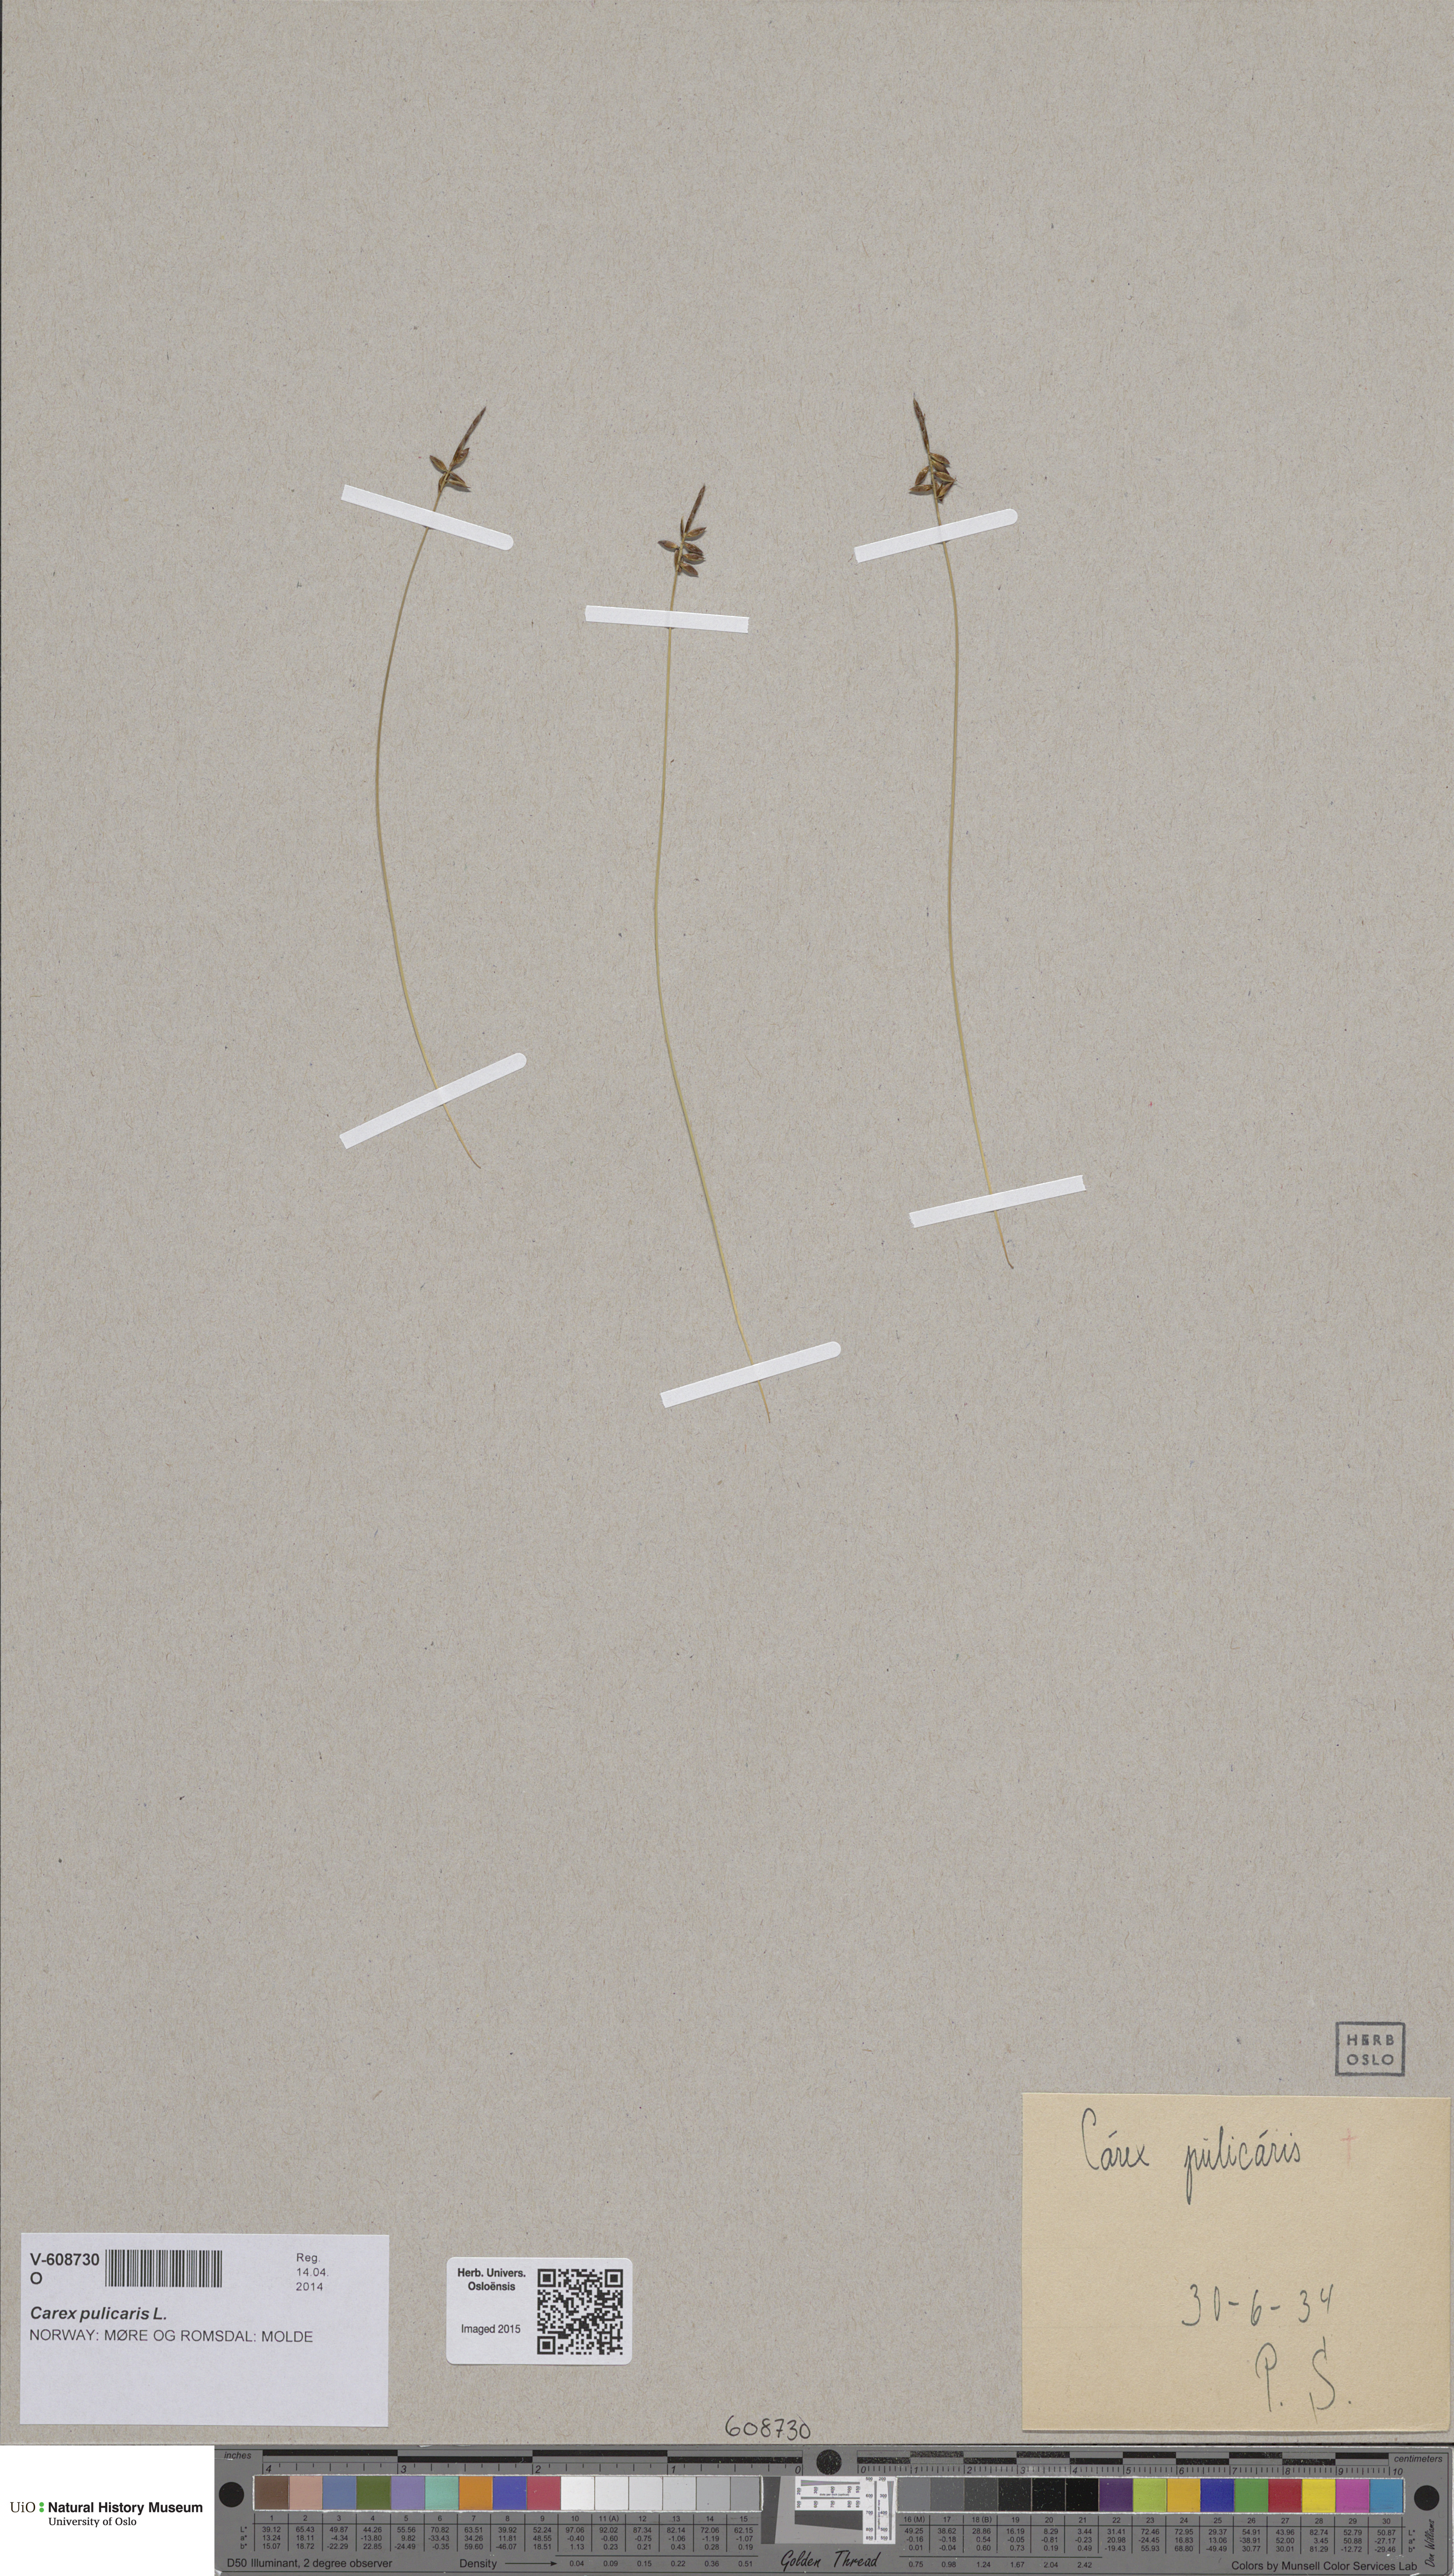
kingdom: Plantae
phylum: Tracheophyta
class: Liliopsida
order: Poales
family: Cyperaceae
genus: Carex
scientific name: Carex pulicaris
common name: Flea sedge
